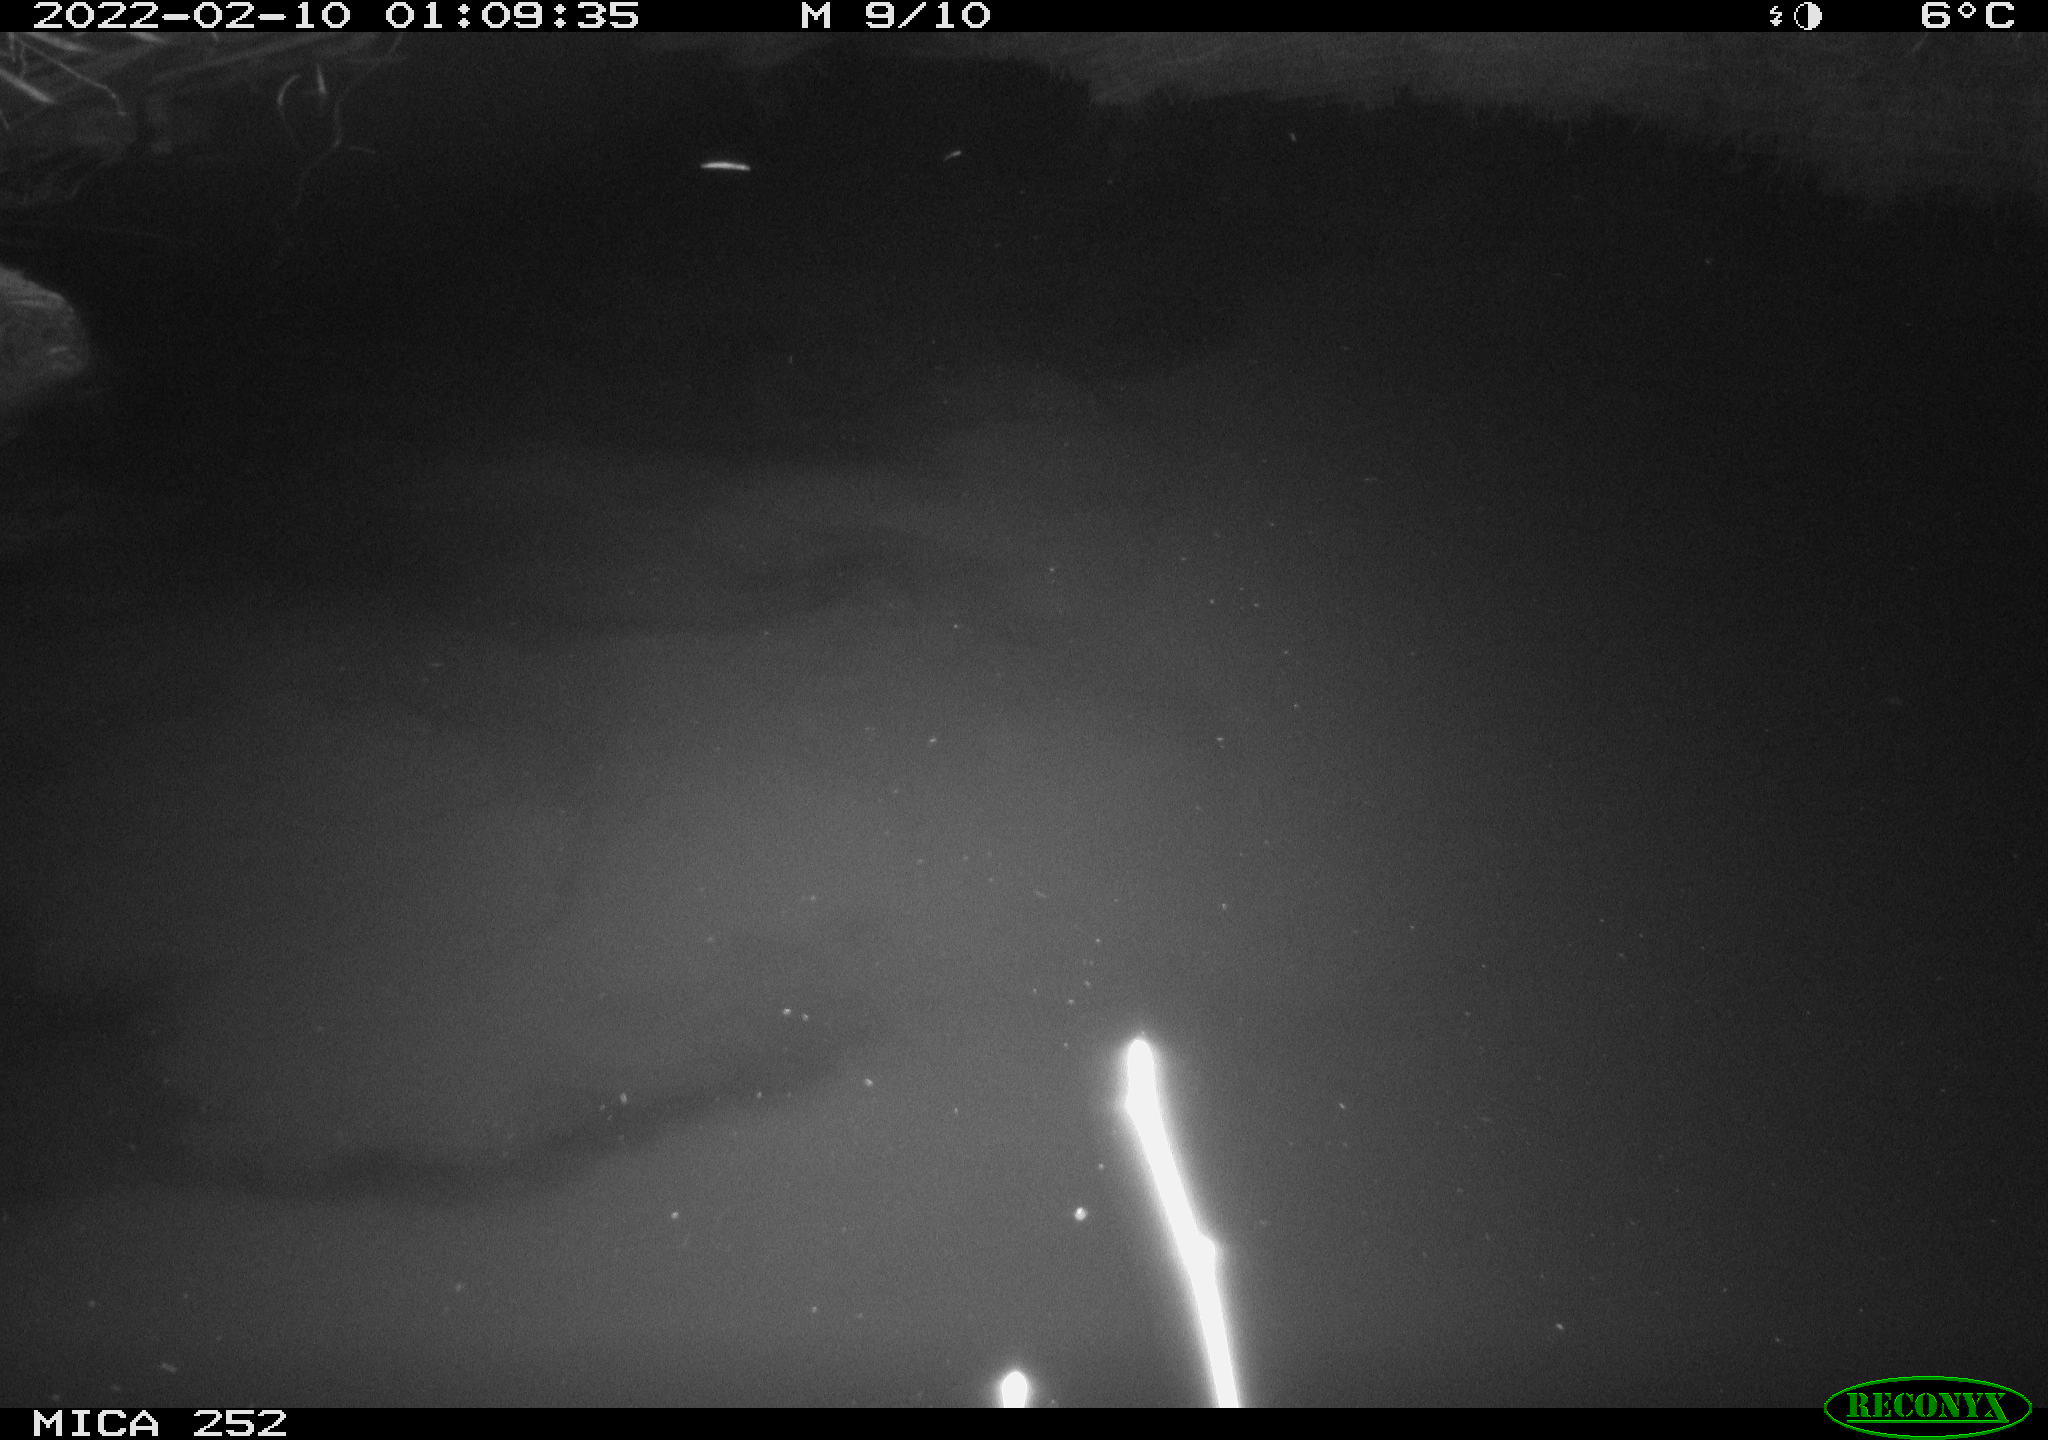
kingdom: Animalia
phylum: Chordata
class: Mammalia
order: Rodentia
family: Castoridae
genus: Castor
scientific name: Castor fiber
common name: Eurasian beaver
